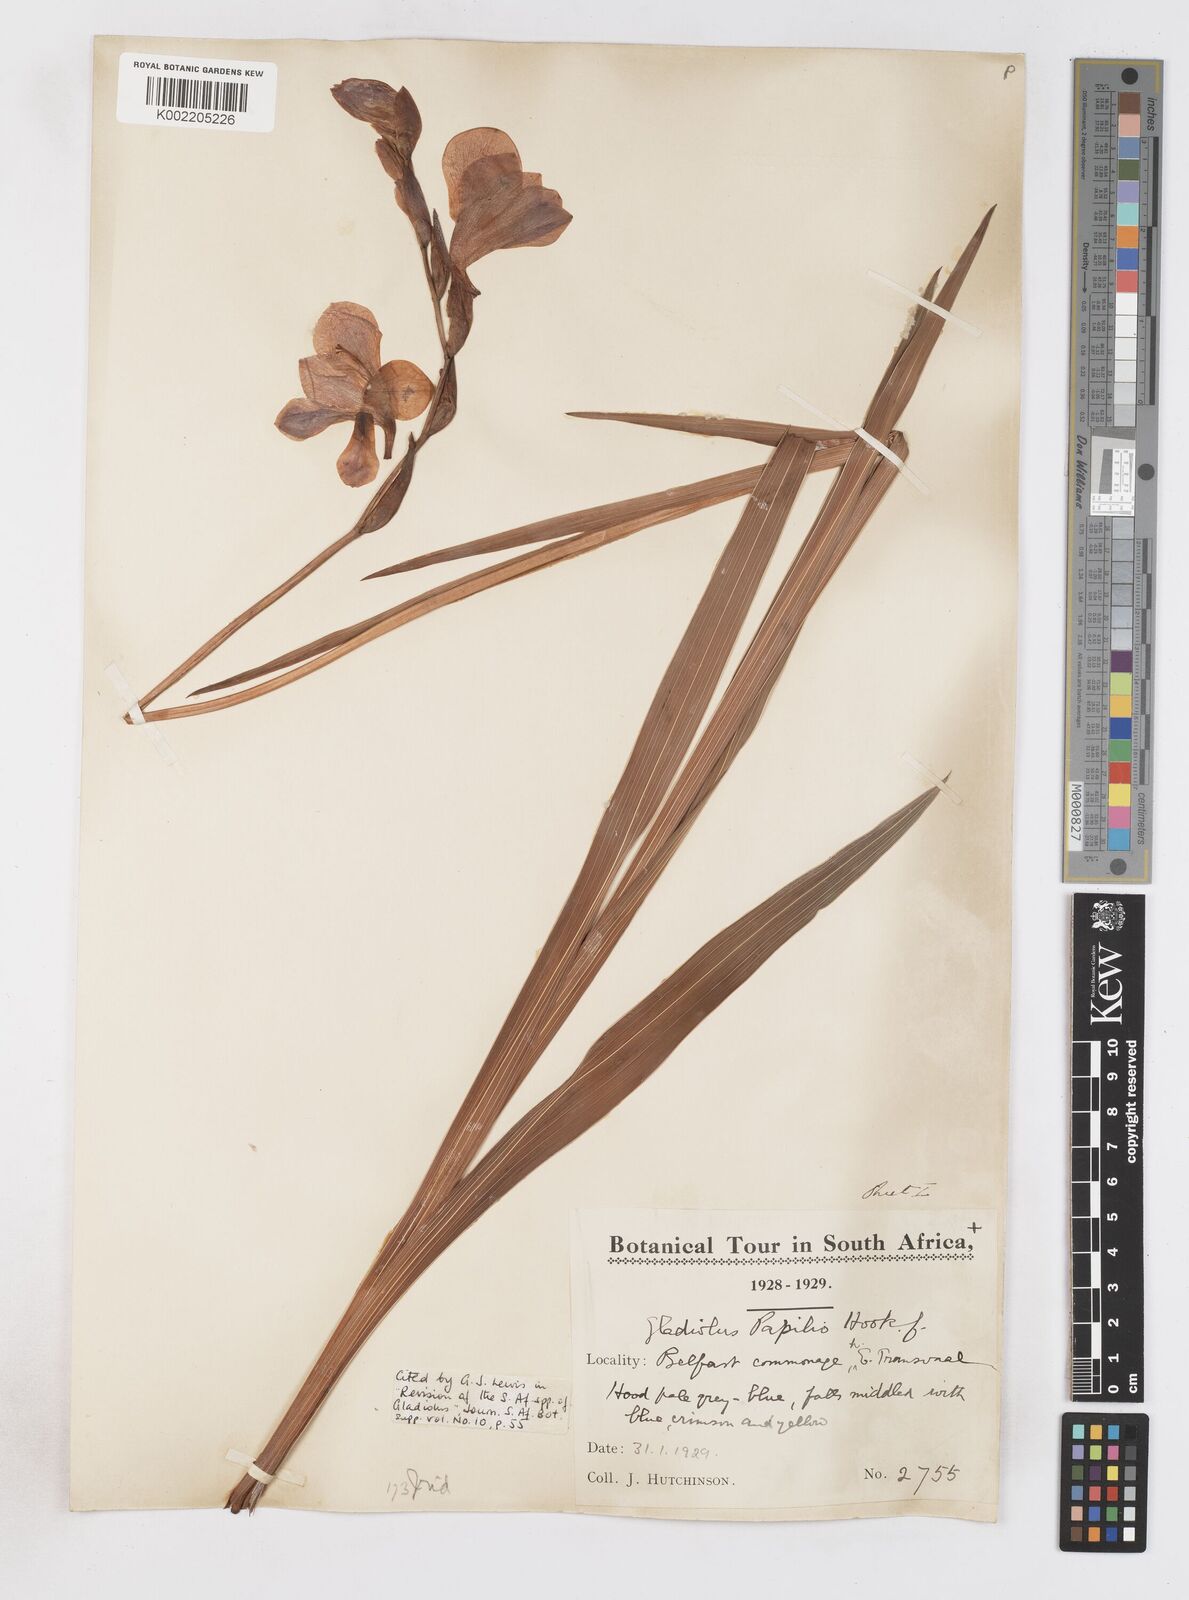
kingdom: Plantae
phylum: Tracheophyta
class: Liliopsida
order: Asparagales
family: Iridaceae
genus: Gladiolus
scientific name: Gladiolus papilio
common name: Goldblotch gladiolus
